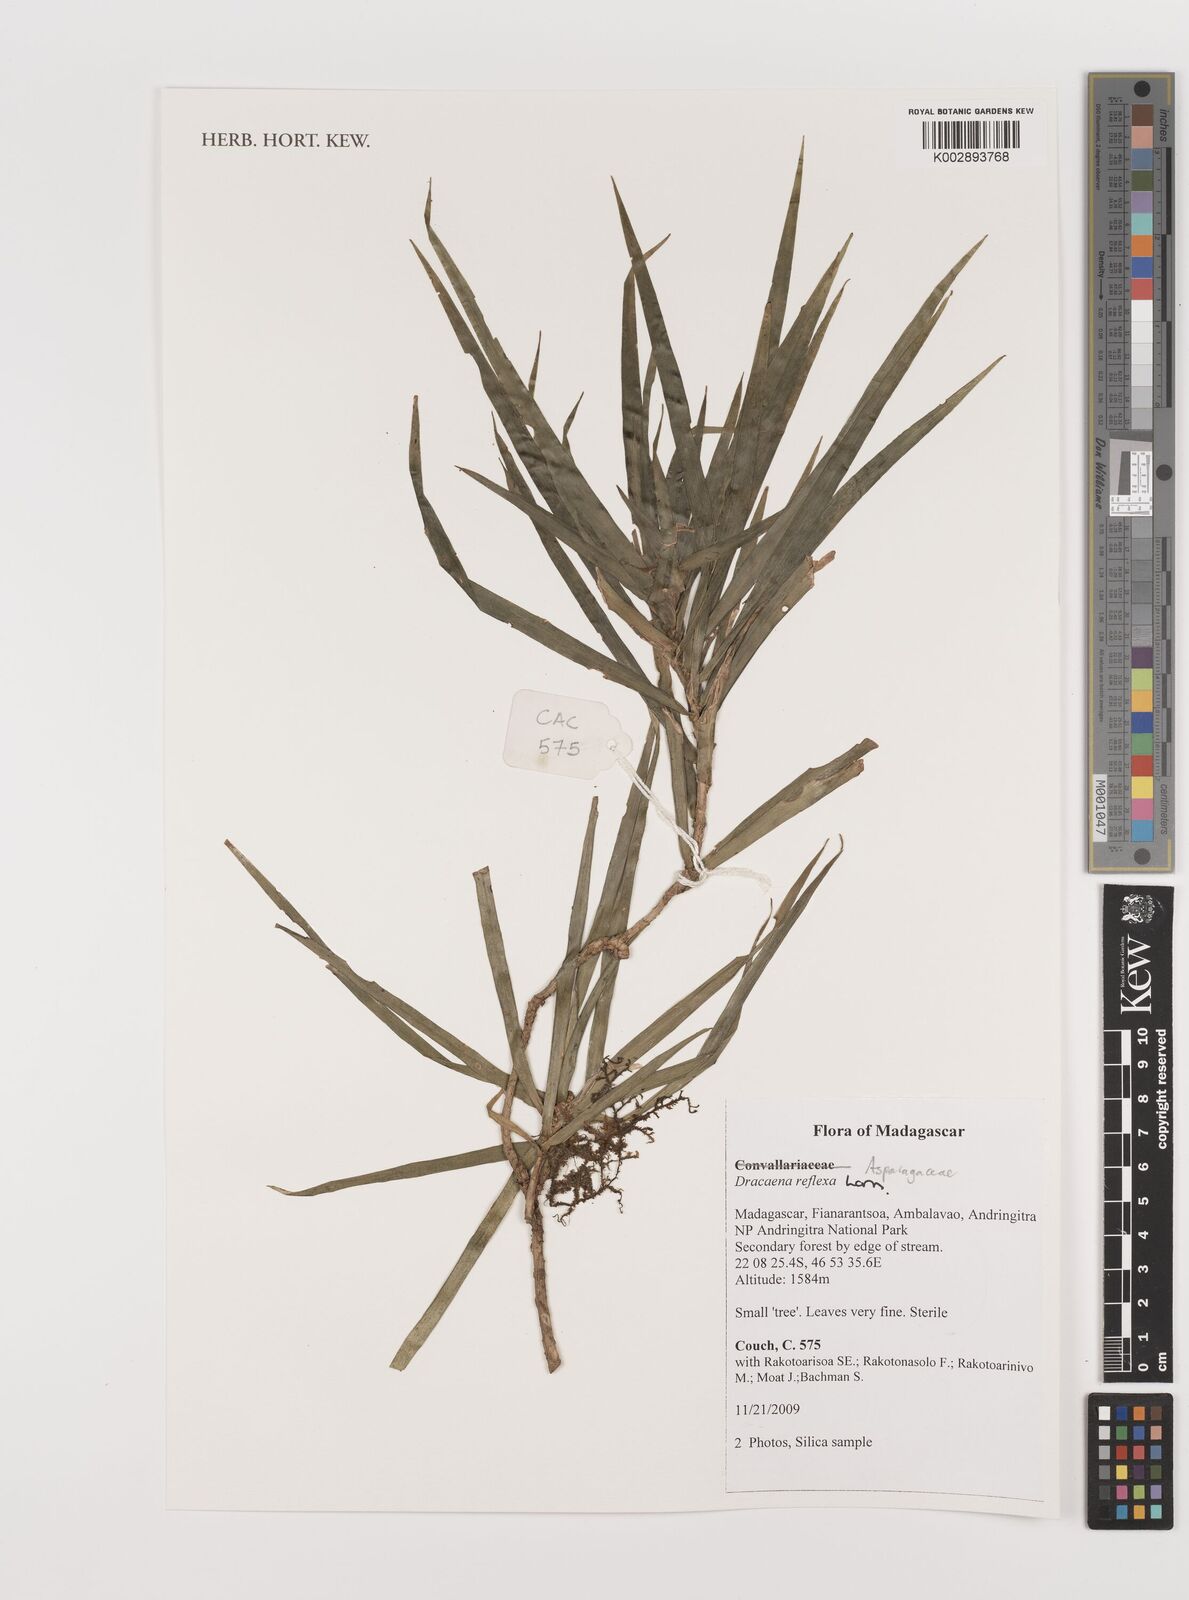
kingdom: Plantae
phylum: Tracheophyta
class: Liliopsida
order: Asparagales
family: Asparagaceae
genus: Dracaena
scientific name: Dracaena reflexa
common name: Song-of-india
